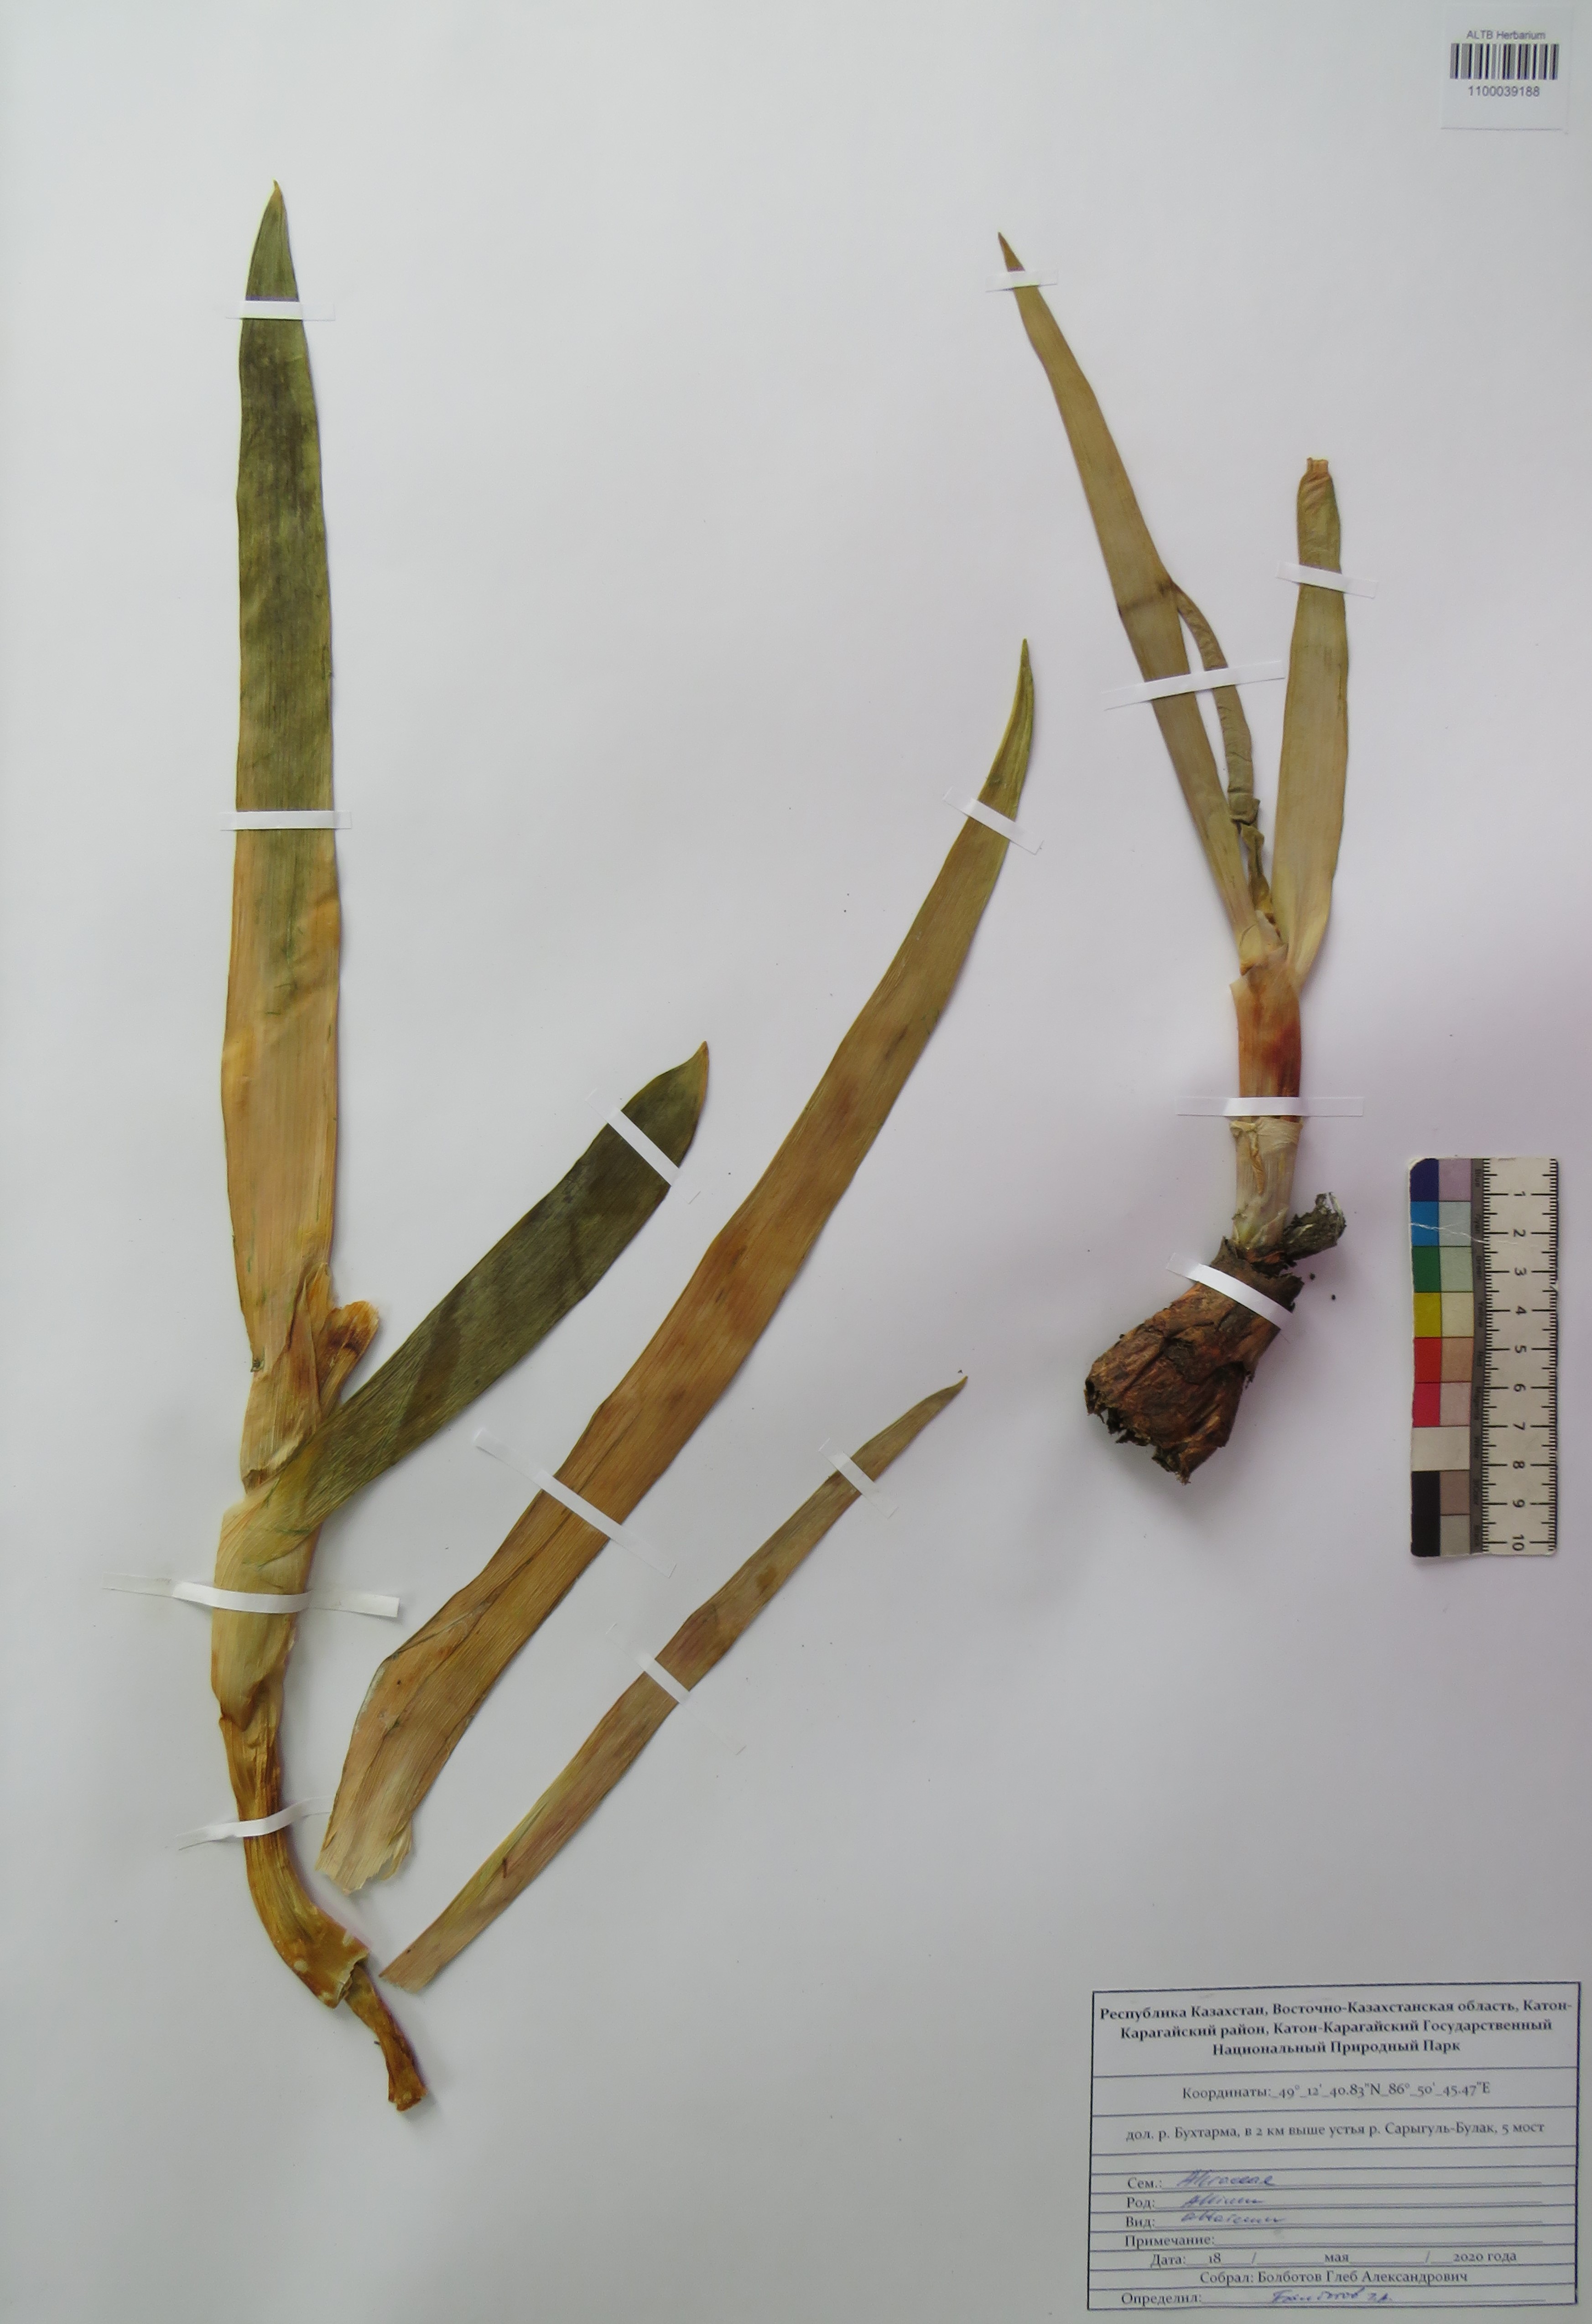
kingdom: Plantae
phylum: Tracheophyta
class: Liliopsida
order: Asparagales
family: Amaryllidaceae
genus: Allium
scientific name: Allium altaicum
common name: Altai onion
